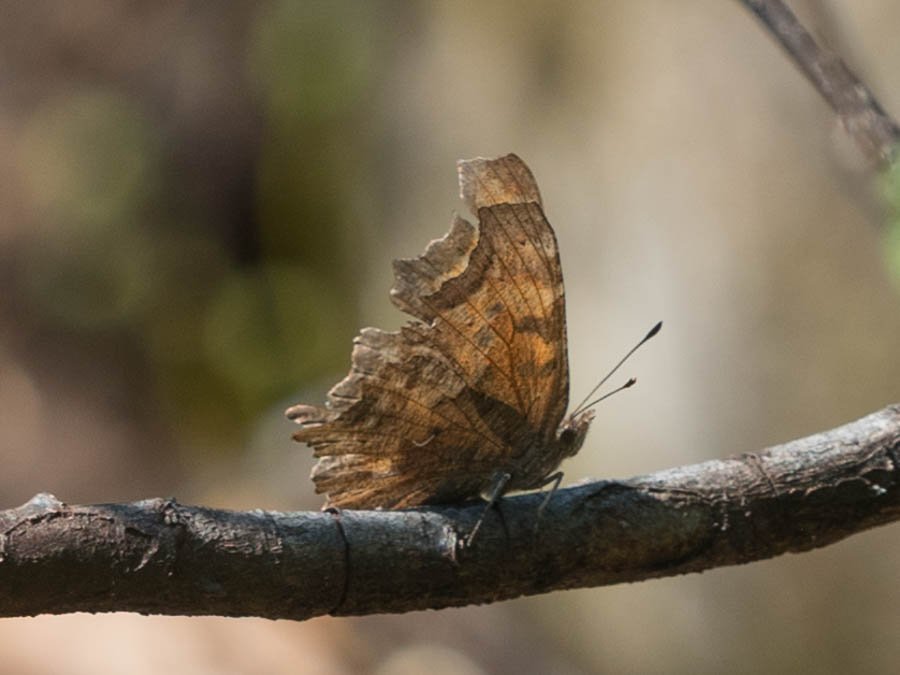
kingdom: Animalia
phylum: Arthropoda
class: Insecta
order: Lepidoptera
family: Nymphalidae
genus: Polygonia
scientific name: Polygonia gracilis
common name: Hoary Comma
